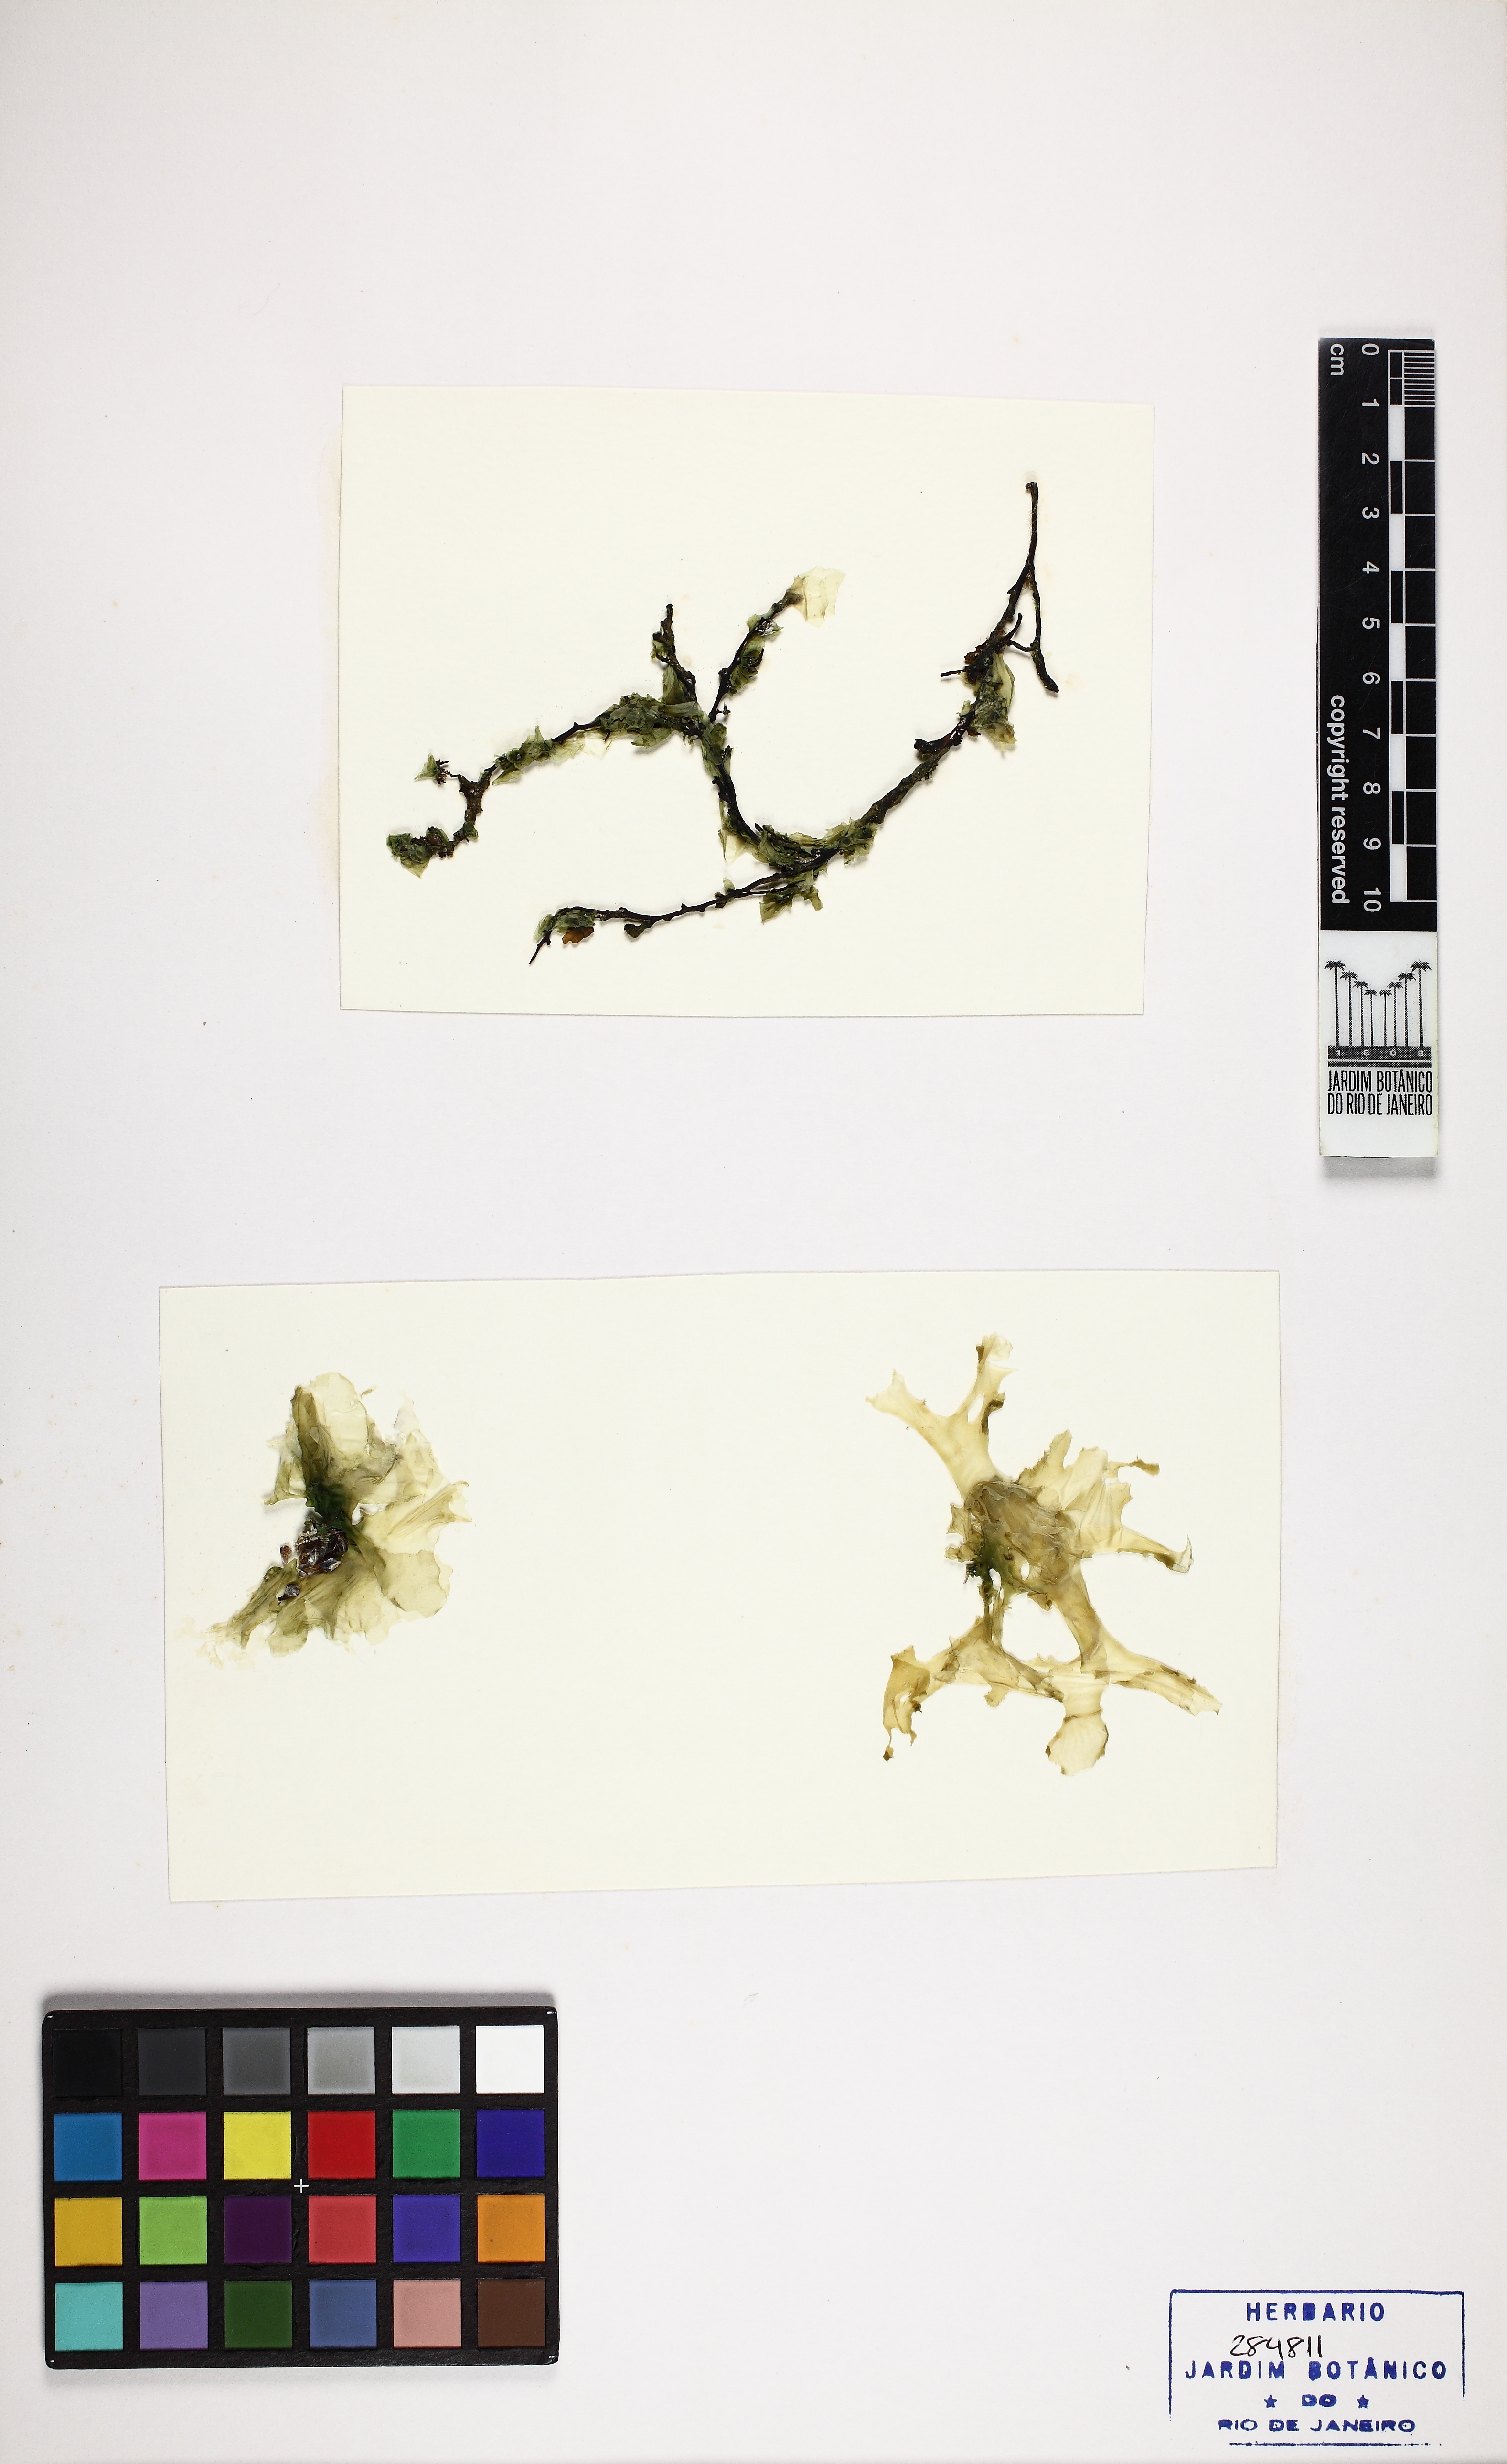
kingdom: Plantae
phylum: Chlorophyta
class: Ulvophyceae
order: Ulvales
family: Ulvaceae
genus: Ulva
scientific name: Ulva lactuca
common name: Sea lettuce
